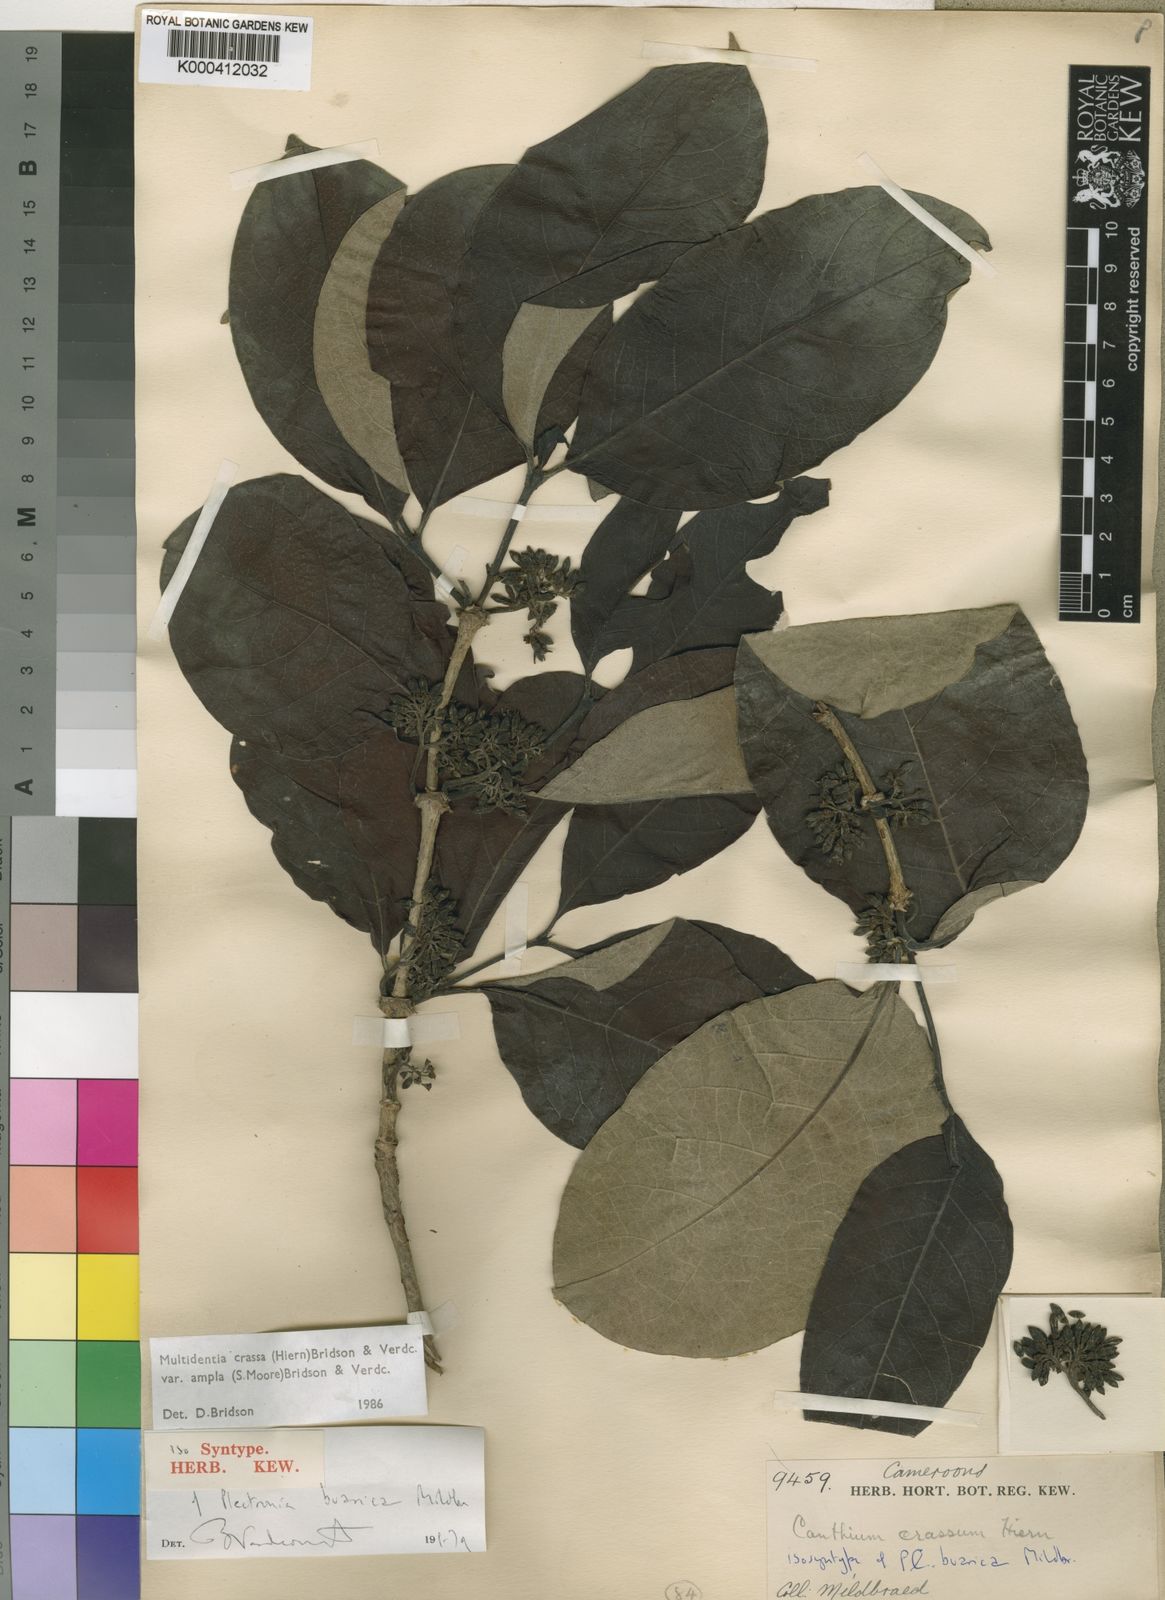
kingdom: Plantae
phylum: Tracheophyta
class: Magnoliopsida
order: Gentianales
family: Rubiaceae
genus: Multidentia
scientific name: Multidentia crassa
